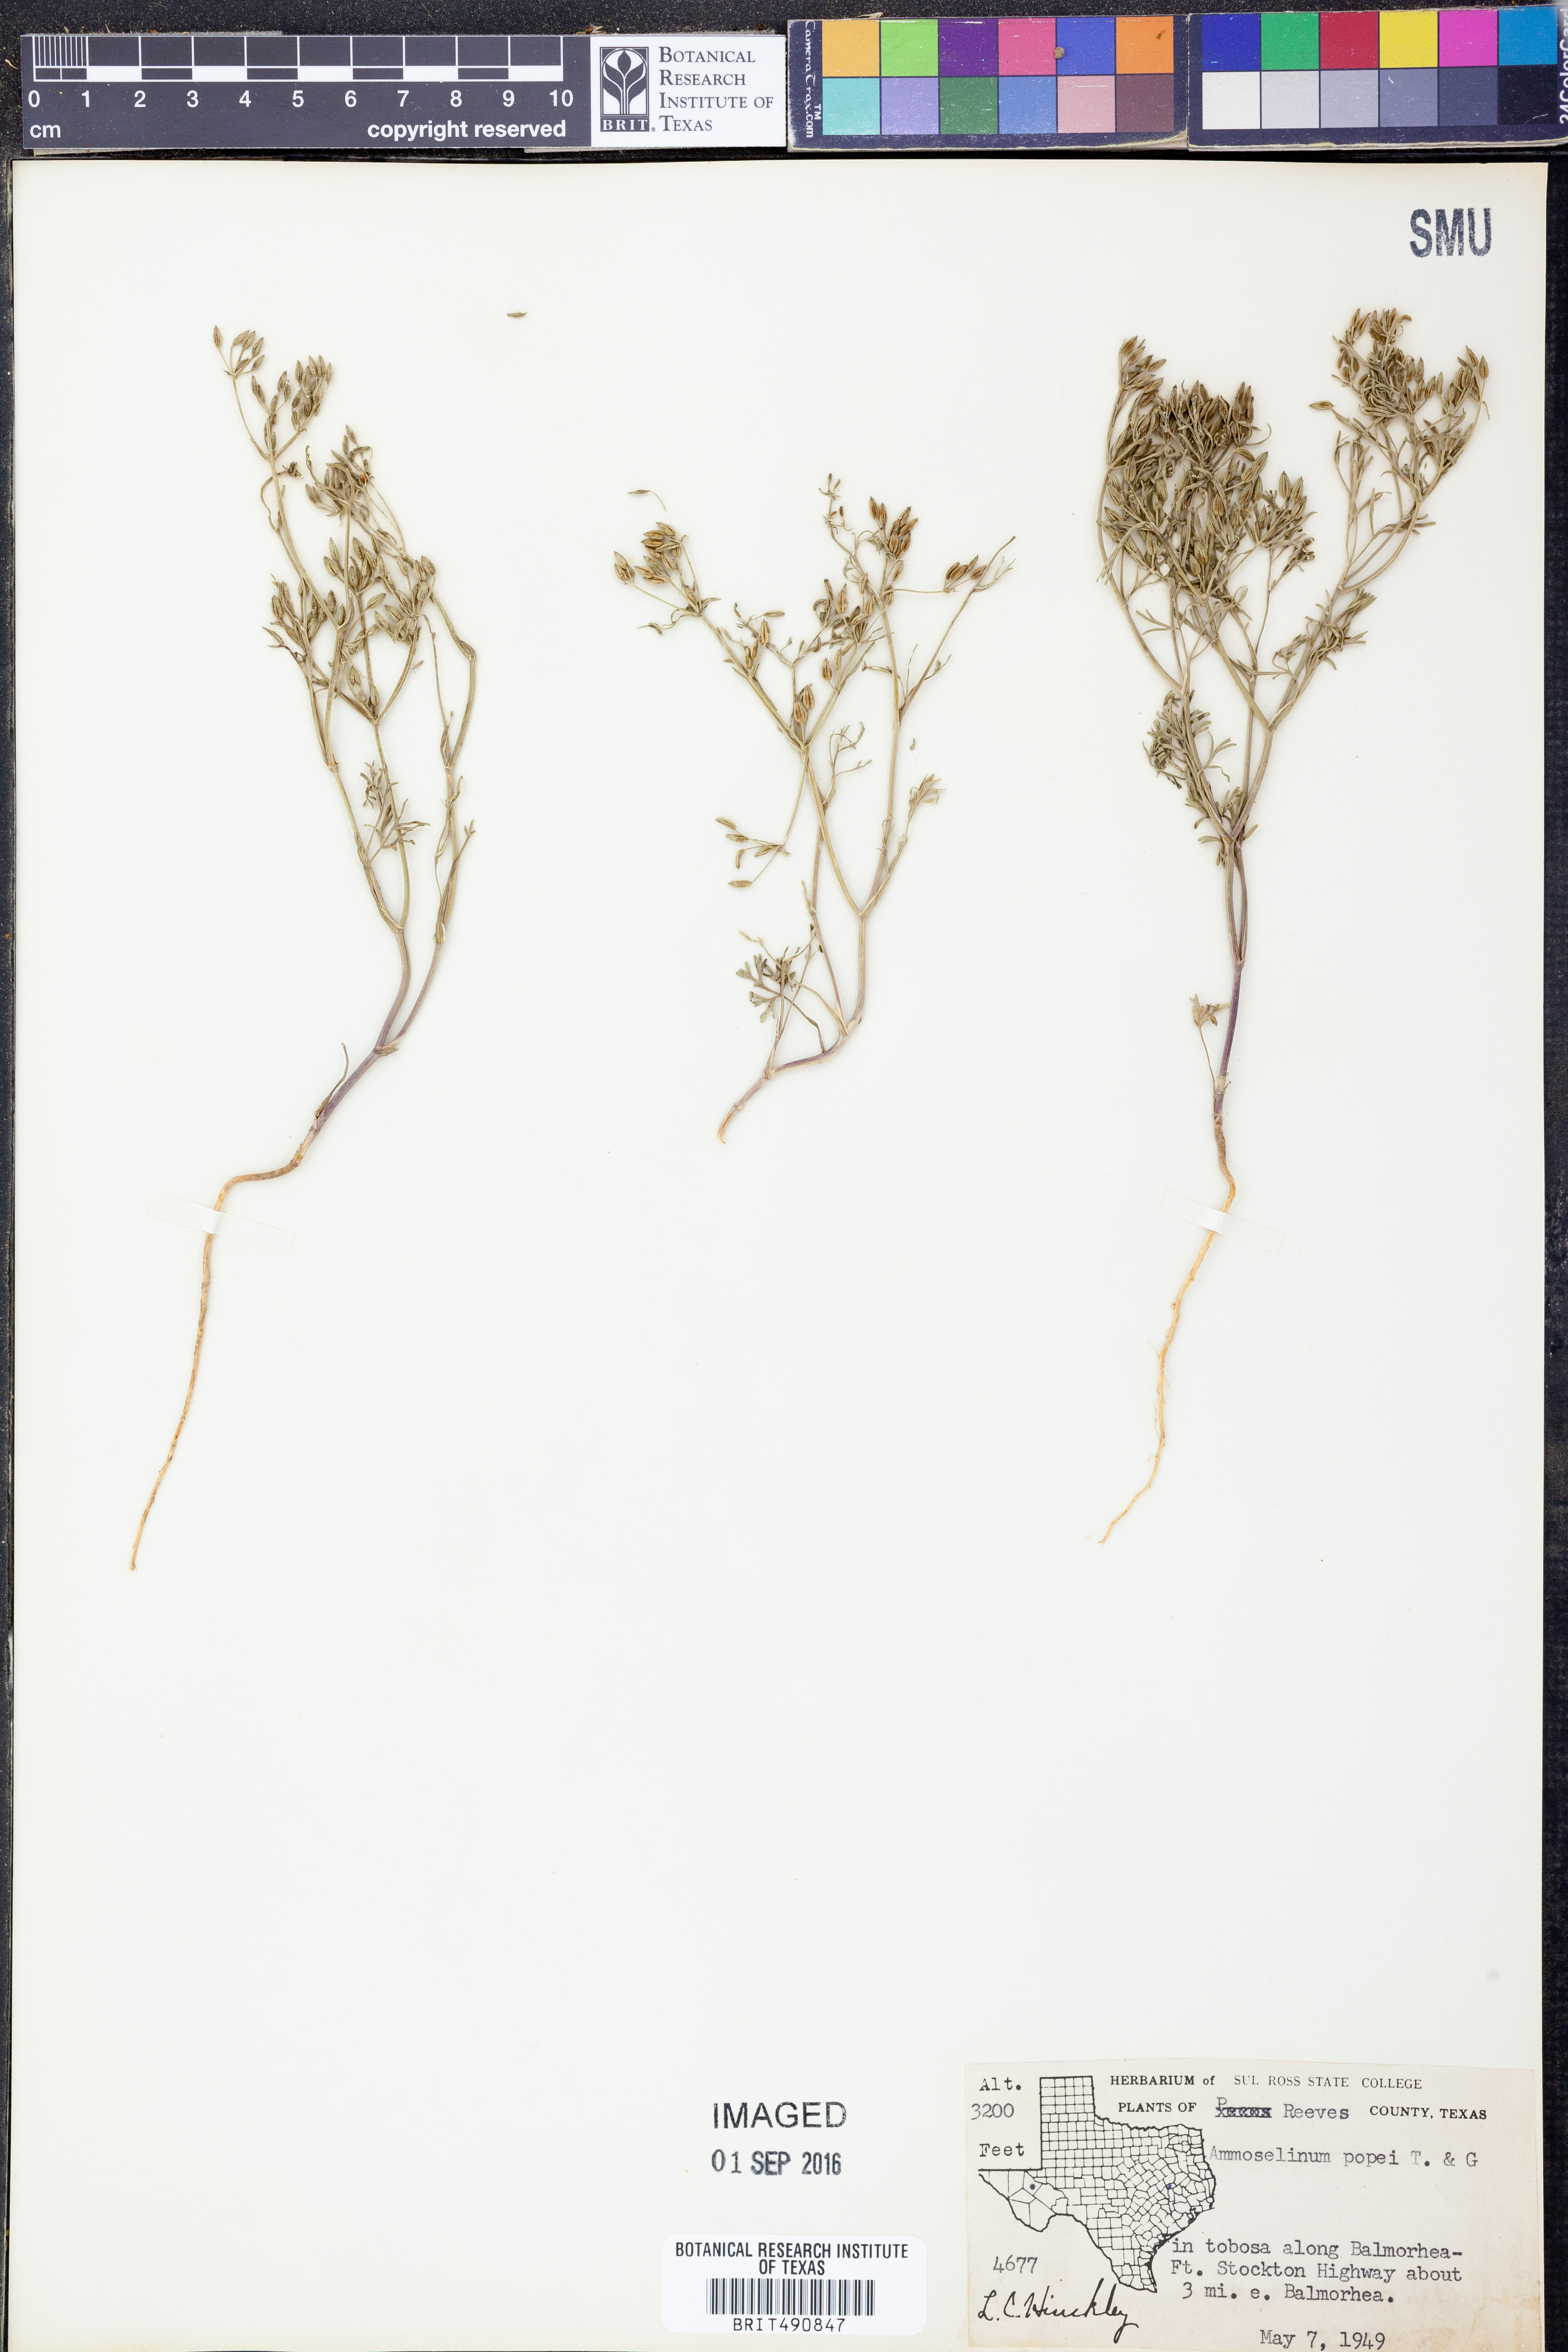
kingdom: Plantae
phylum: Tracheophyta
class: Magnoliopsida
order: Apiales
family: Apiaceae
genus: Ammoselinum
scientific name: Ammoselinum popei
